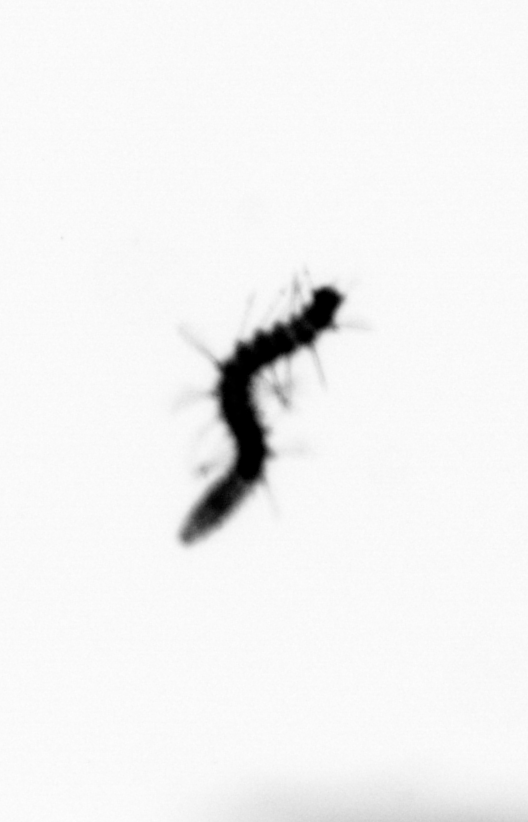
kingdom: Animalia
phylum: Annelida
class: Polychaeta
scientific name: Polychaeta
